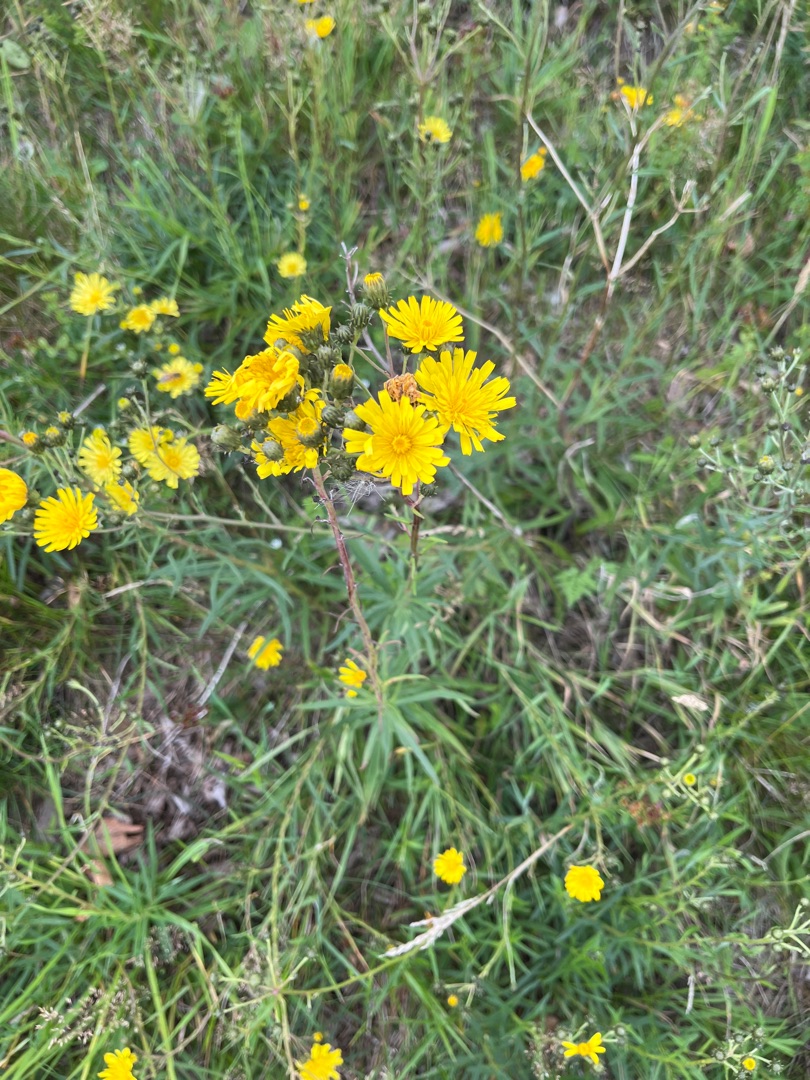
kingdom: Plantae
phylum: Tracheophyta
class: Magnoliopsida
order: Asterales
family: Asteraceae
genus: Hieracium
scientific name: Hieracium umbellatum
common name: Smalbladet høgeurt
